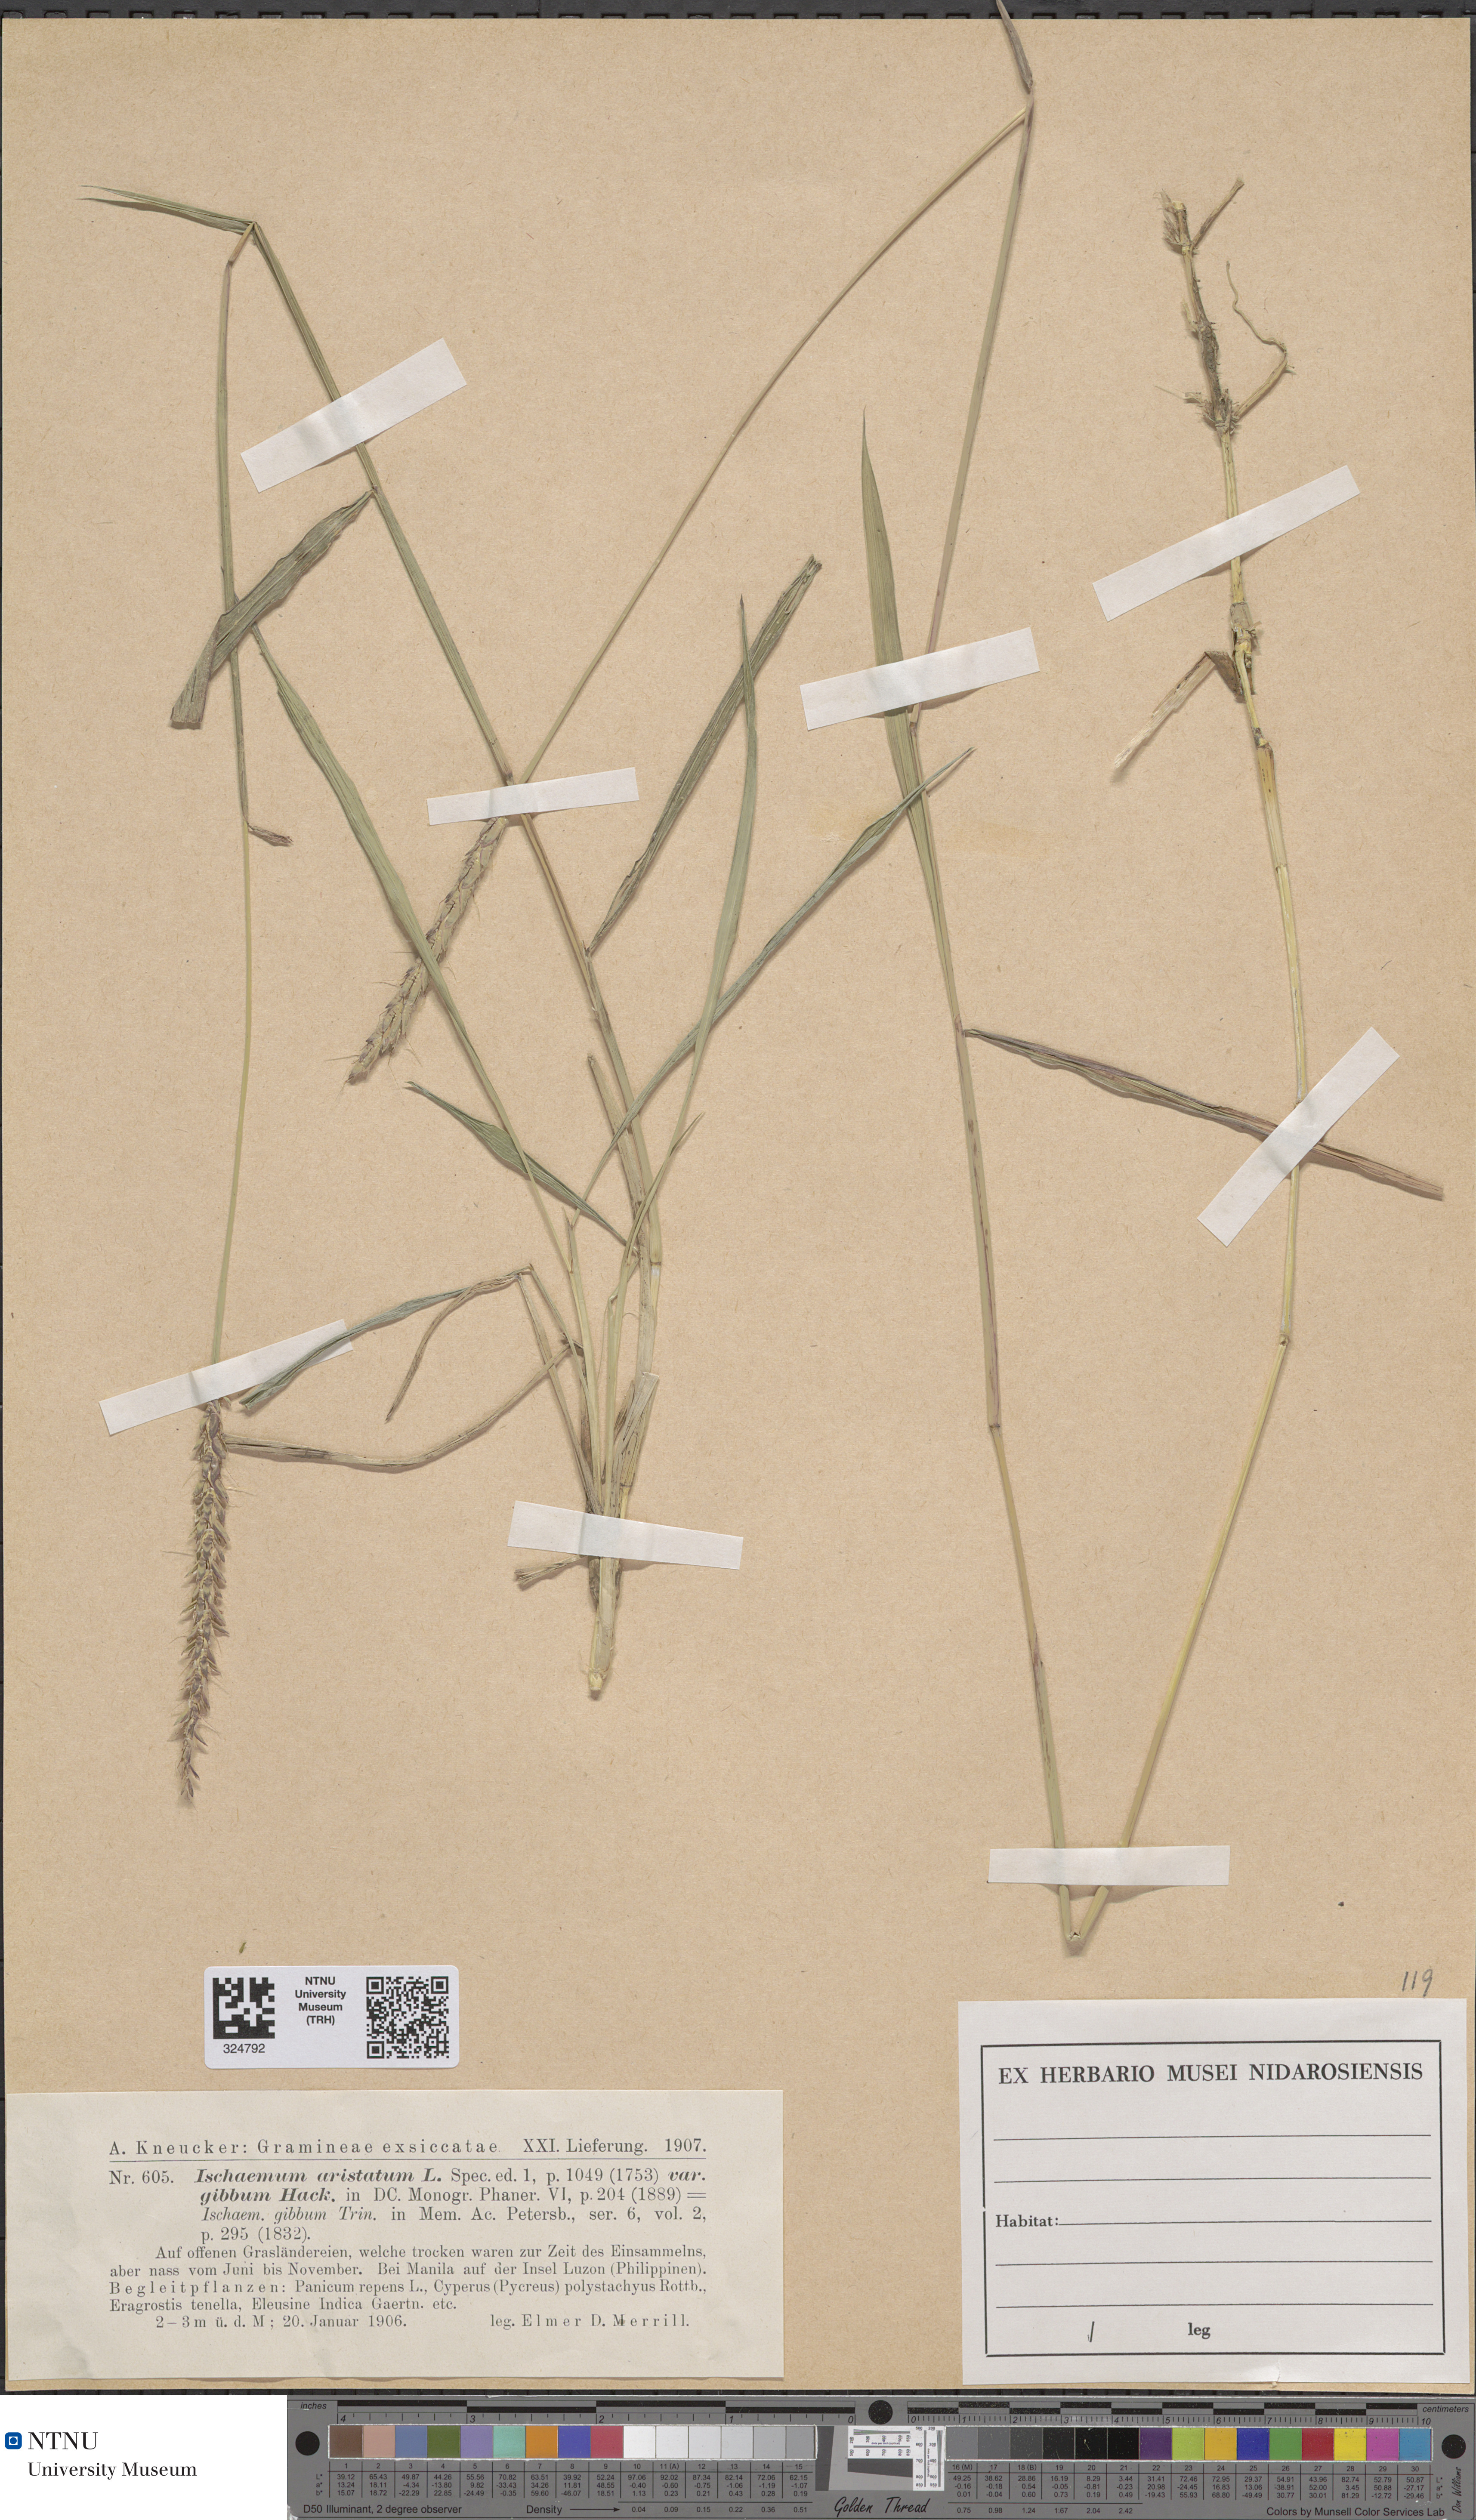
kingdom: Plantae
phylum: Tracheophyta
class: Liliopsida
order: Poales
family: Poaceae
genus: Ischaemum
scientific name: Ischaemum aristatum
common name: Toco grass
